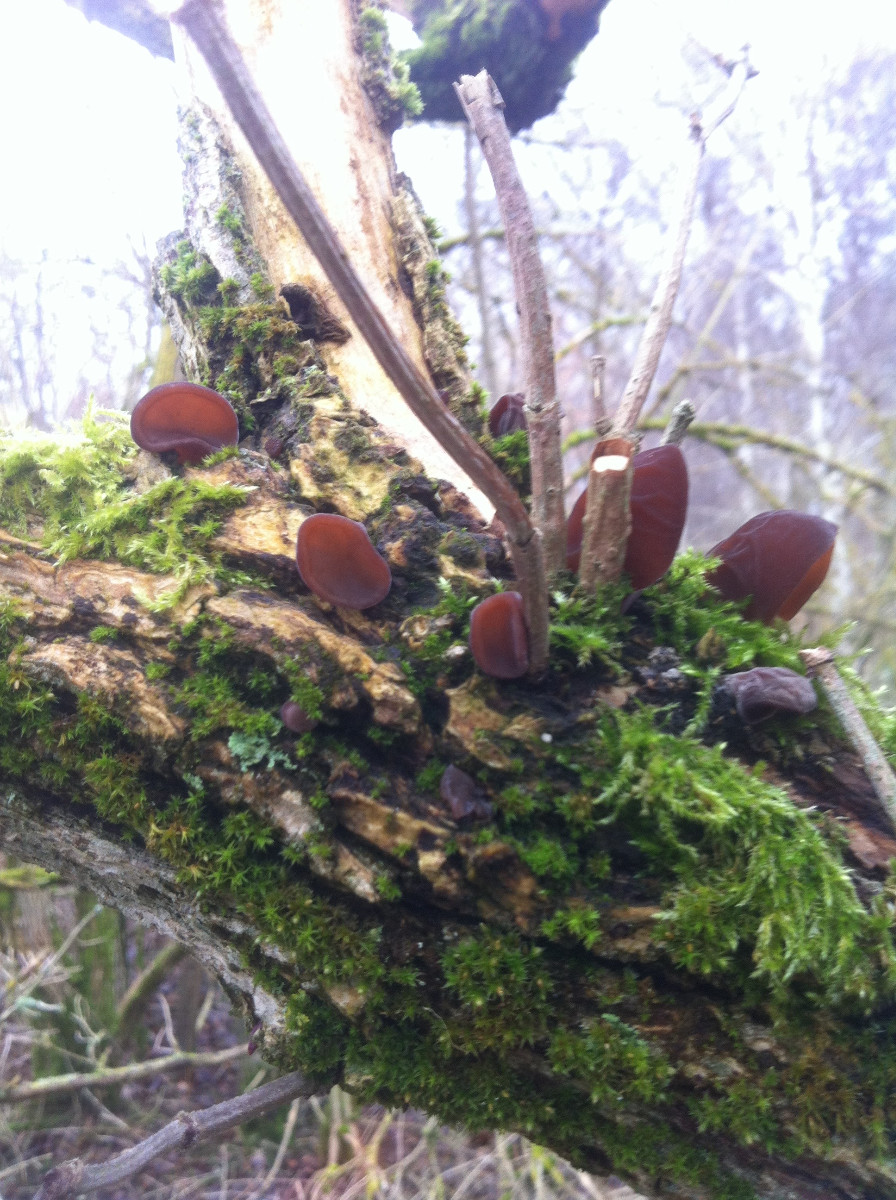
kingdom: Fungi
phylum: Basidiomycota
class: Agaricomycetes
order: Auriculariales
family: Auriculariaceae
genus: Auricularia
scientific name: Auricularia auricula-judae
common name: almindelig judasøre
